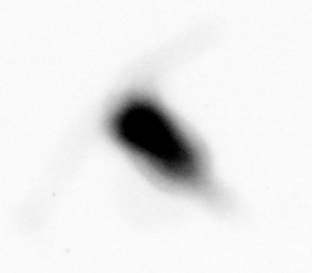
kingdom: Animalia
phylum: Arthropoda
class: Copepoda
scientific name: Copepoda
